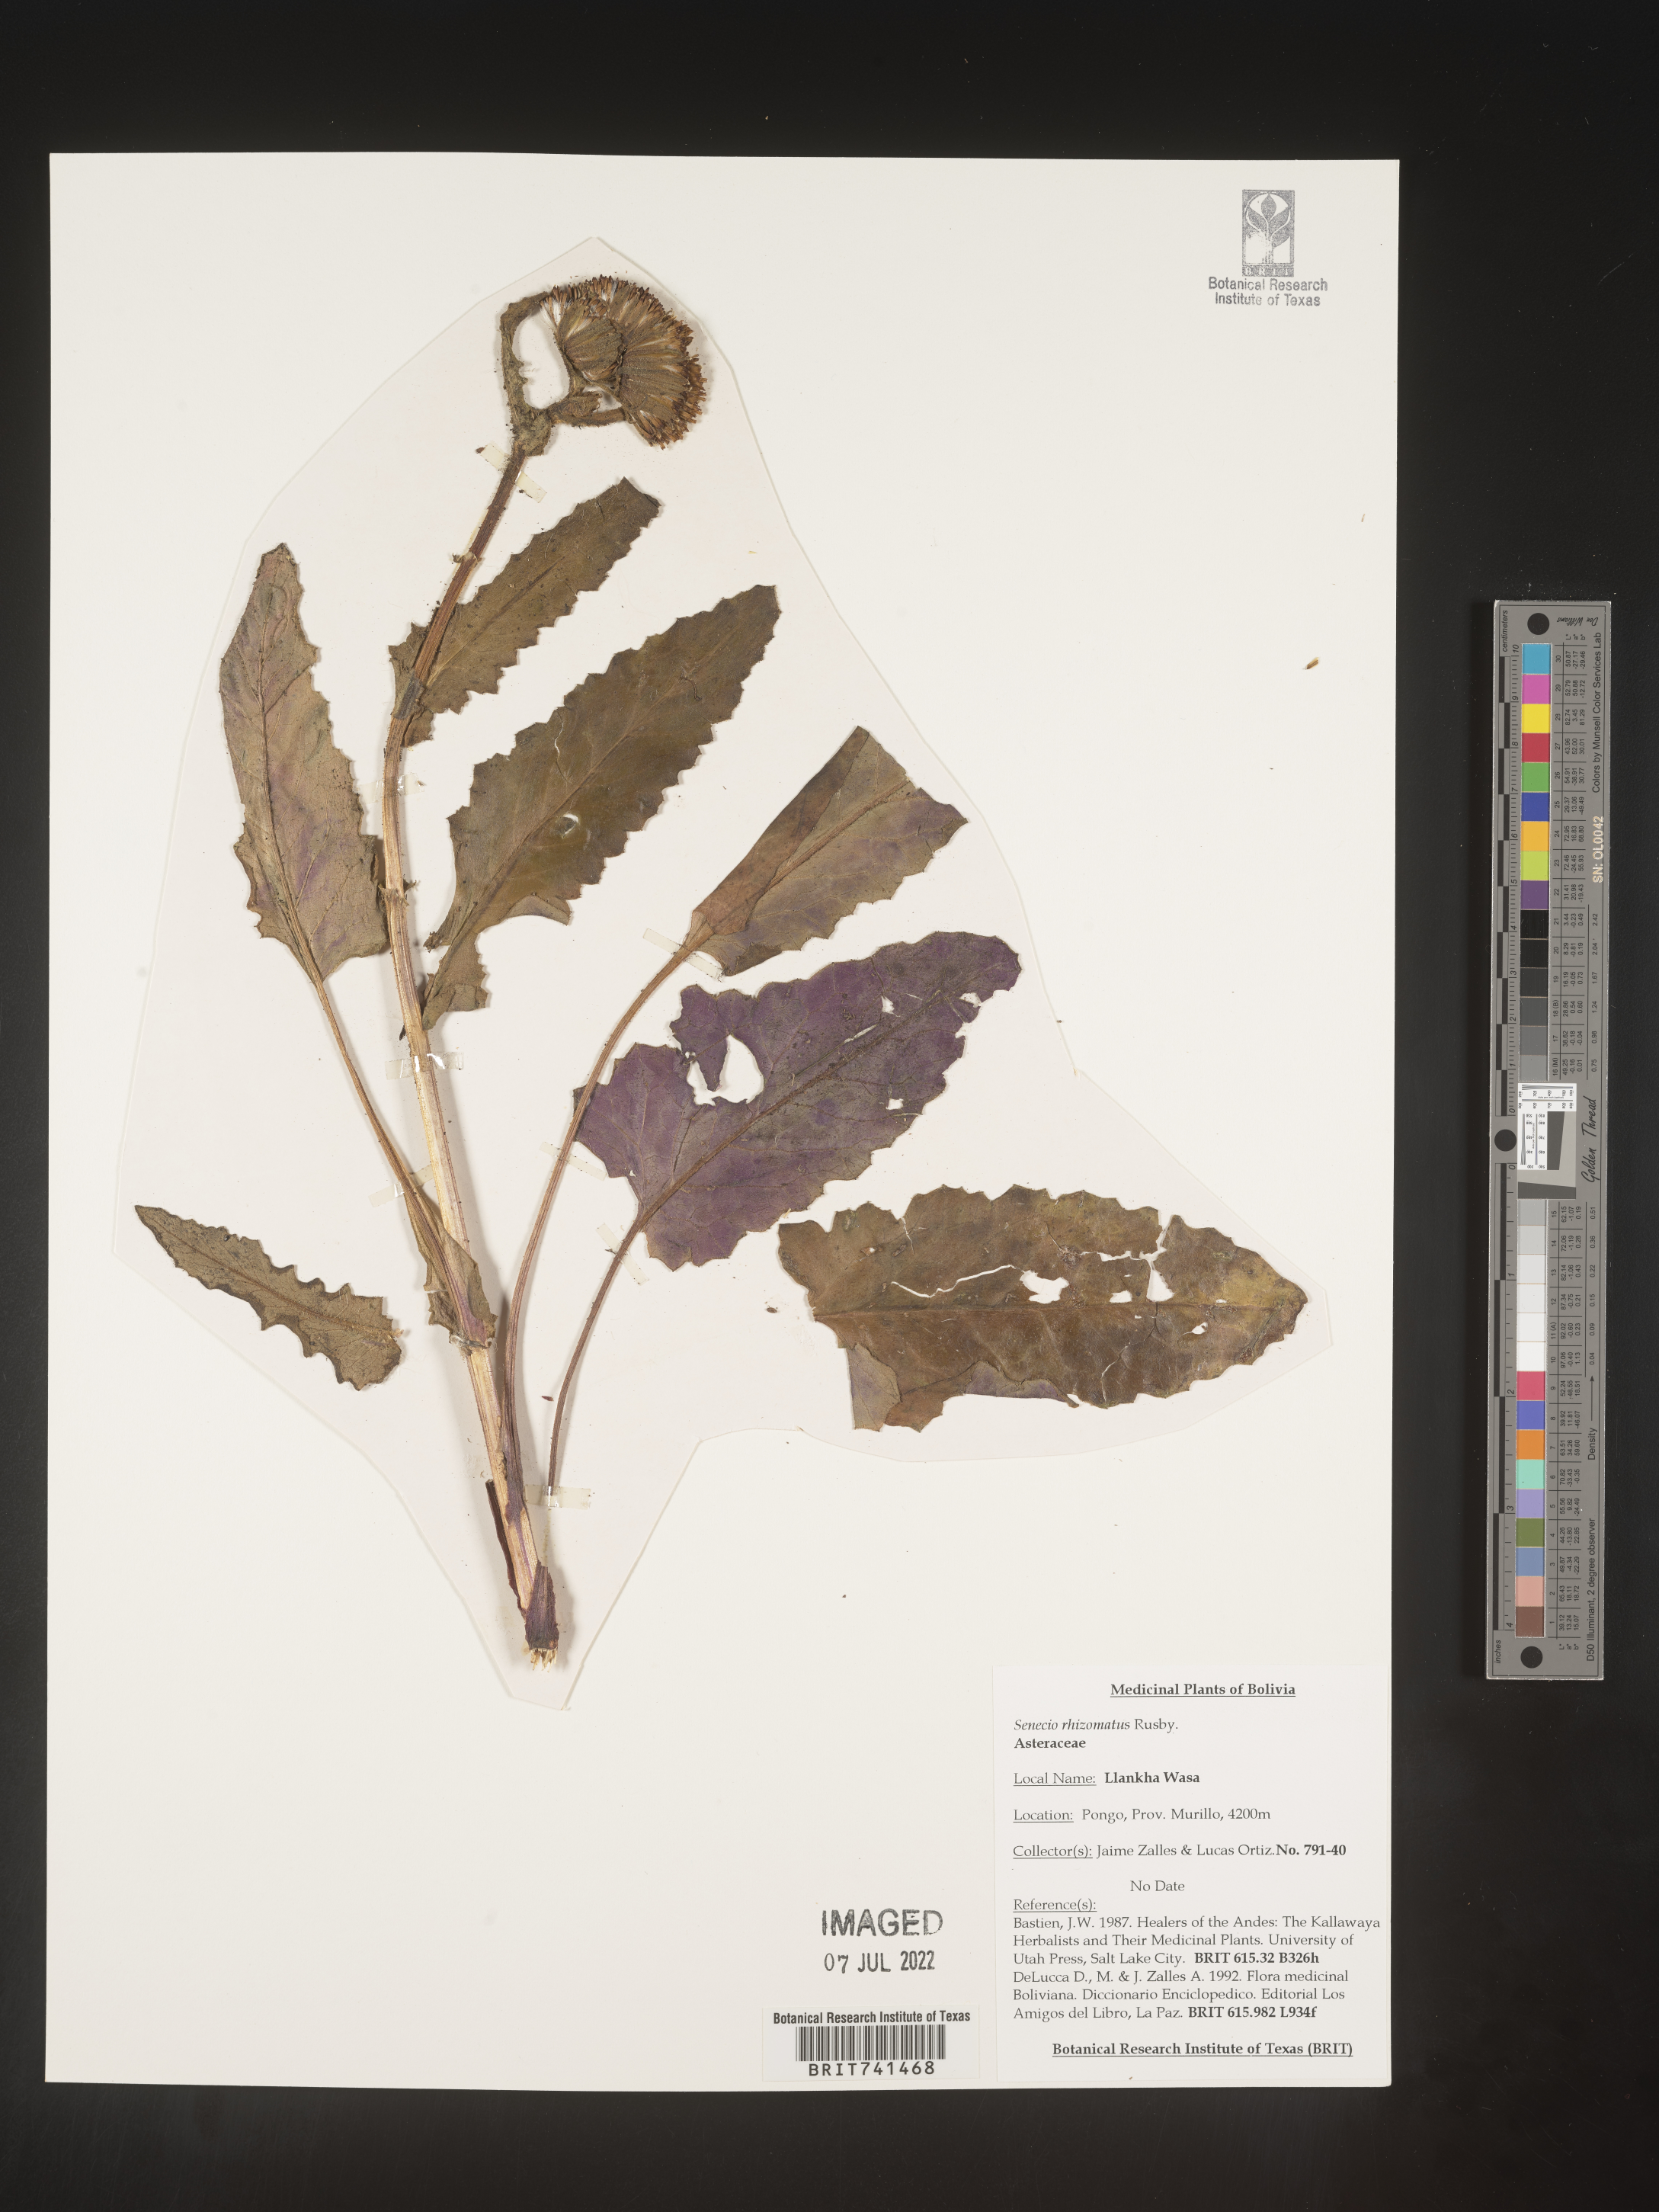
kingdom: Plantae
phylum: Tracheophyta
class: Magnoliopsida
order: Asterales
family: Asteraceae
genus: Senecio
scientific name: Senecio
